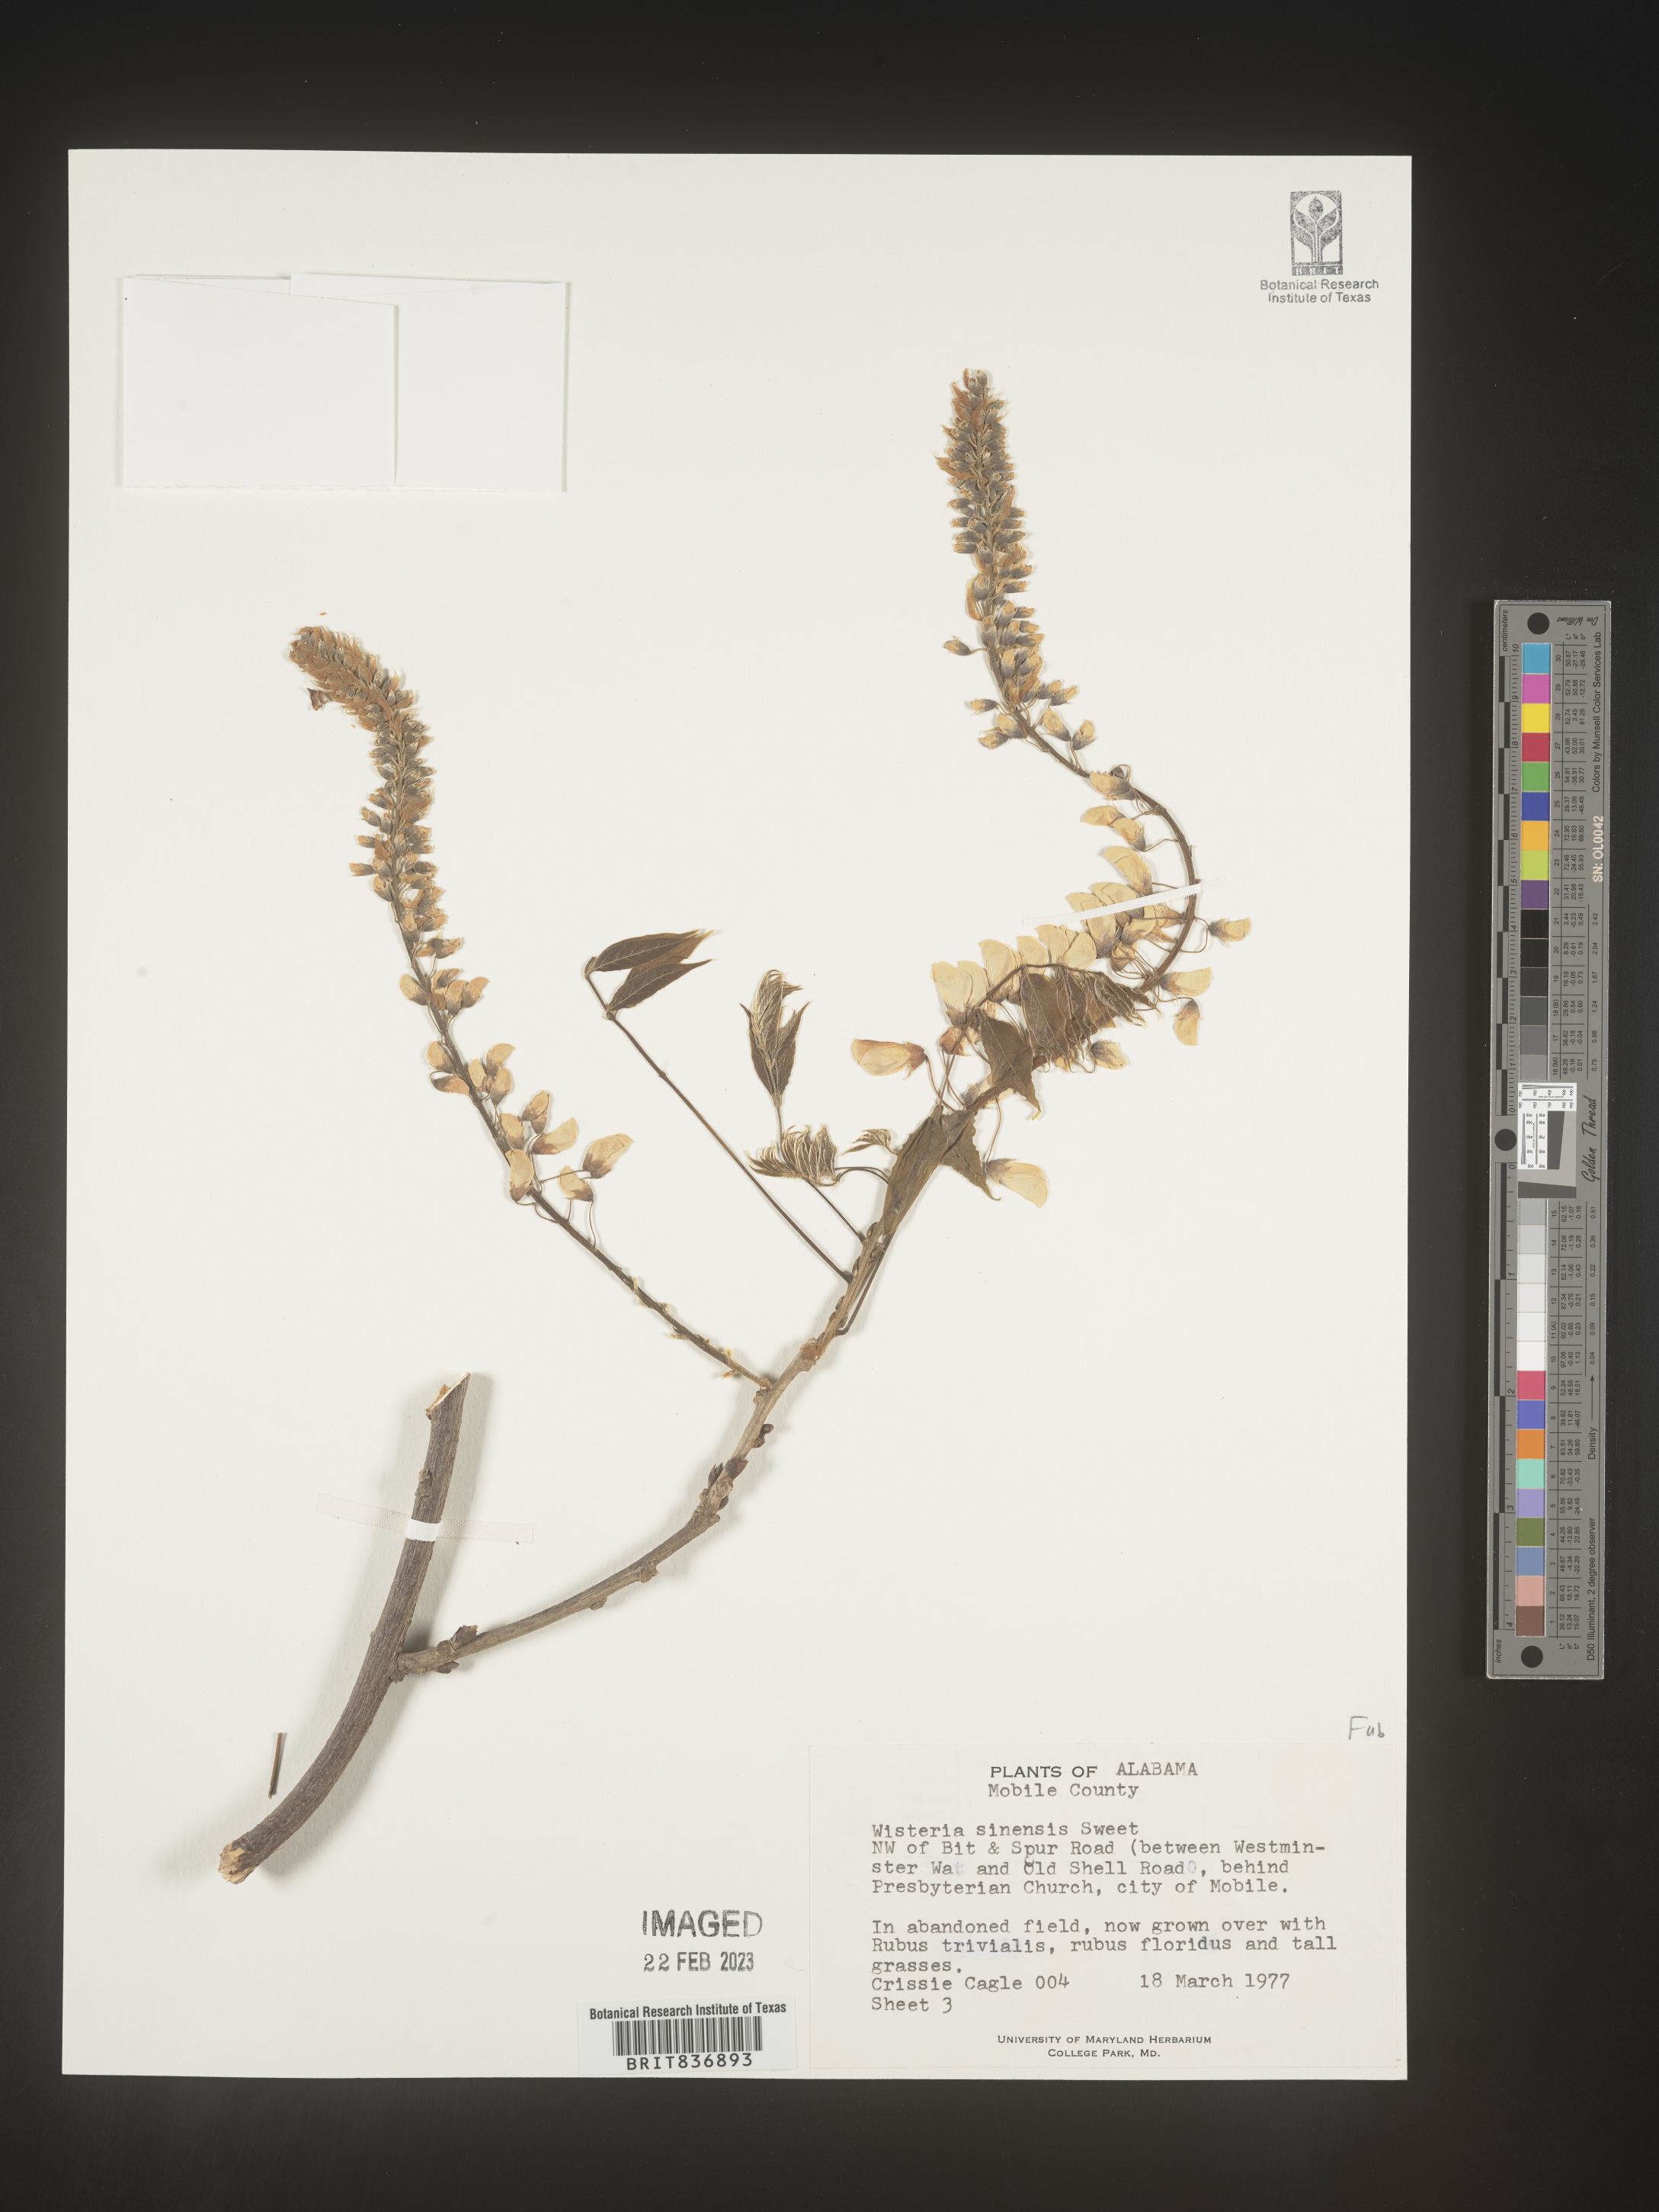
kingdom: Plantae
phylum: Tracheophyta
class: Magnoliopsida
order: Fabales
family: Fabaceae
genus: Wisteria
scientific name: Wisteria sinensis
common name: Chinese wisteria
